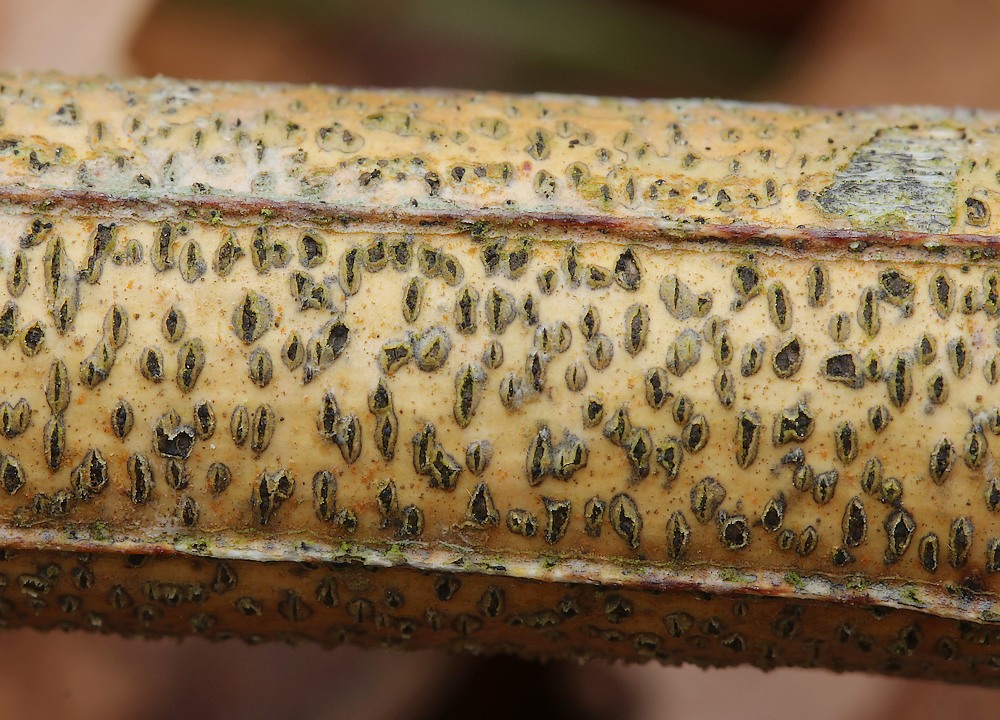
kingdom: Fungi
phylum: Basidiomycota
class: Tremellomycetes
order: Tremellales
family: Tremellaceae
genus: Tremella
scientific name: Tremella exigua
